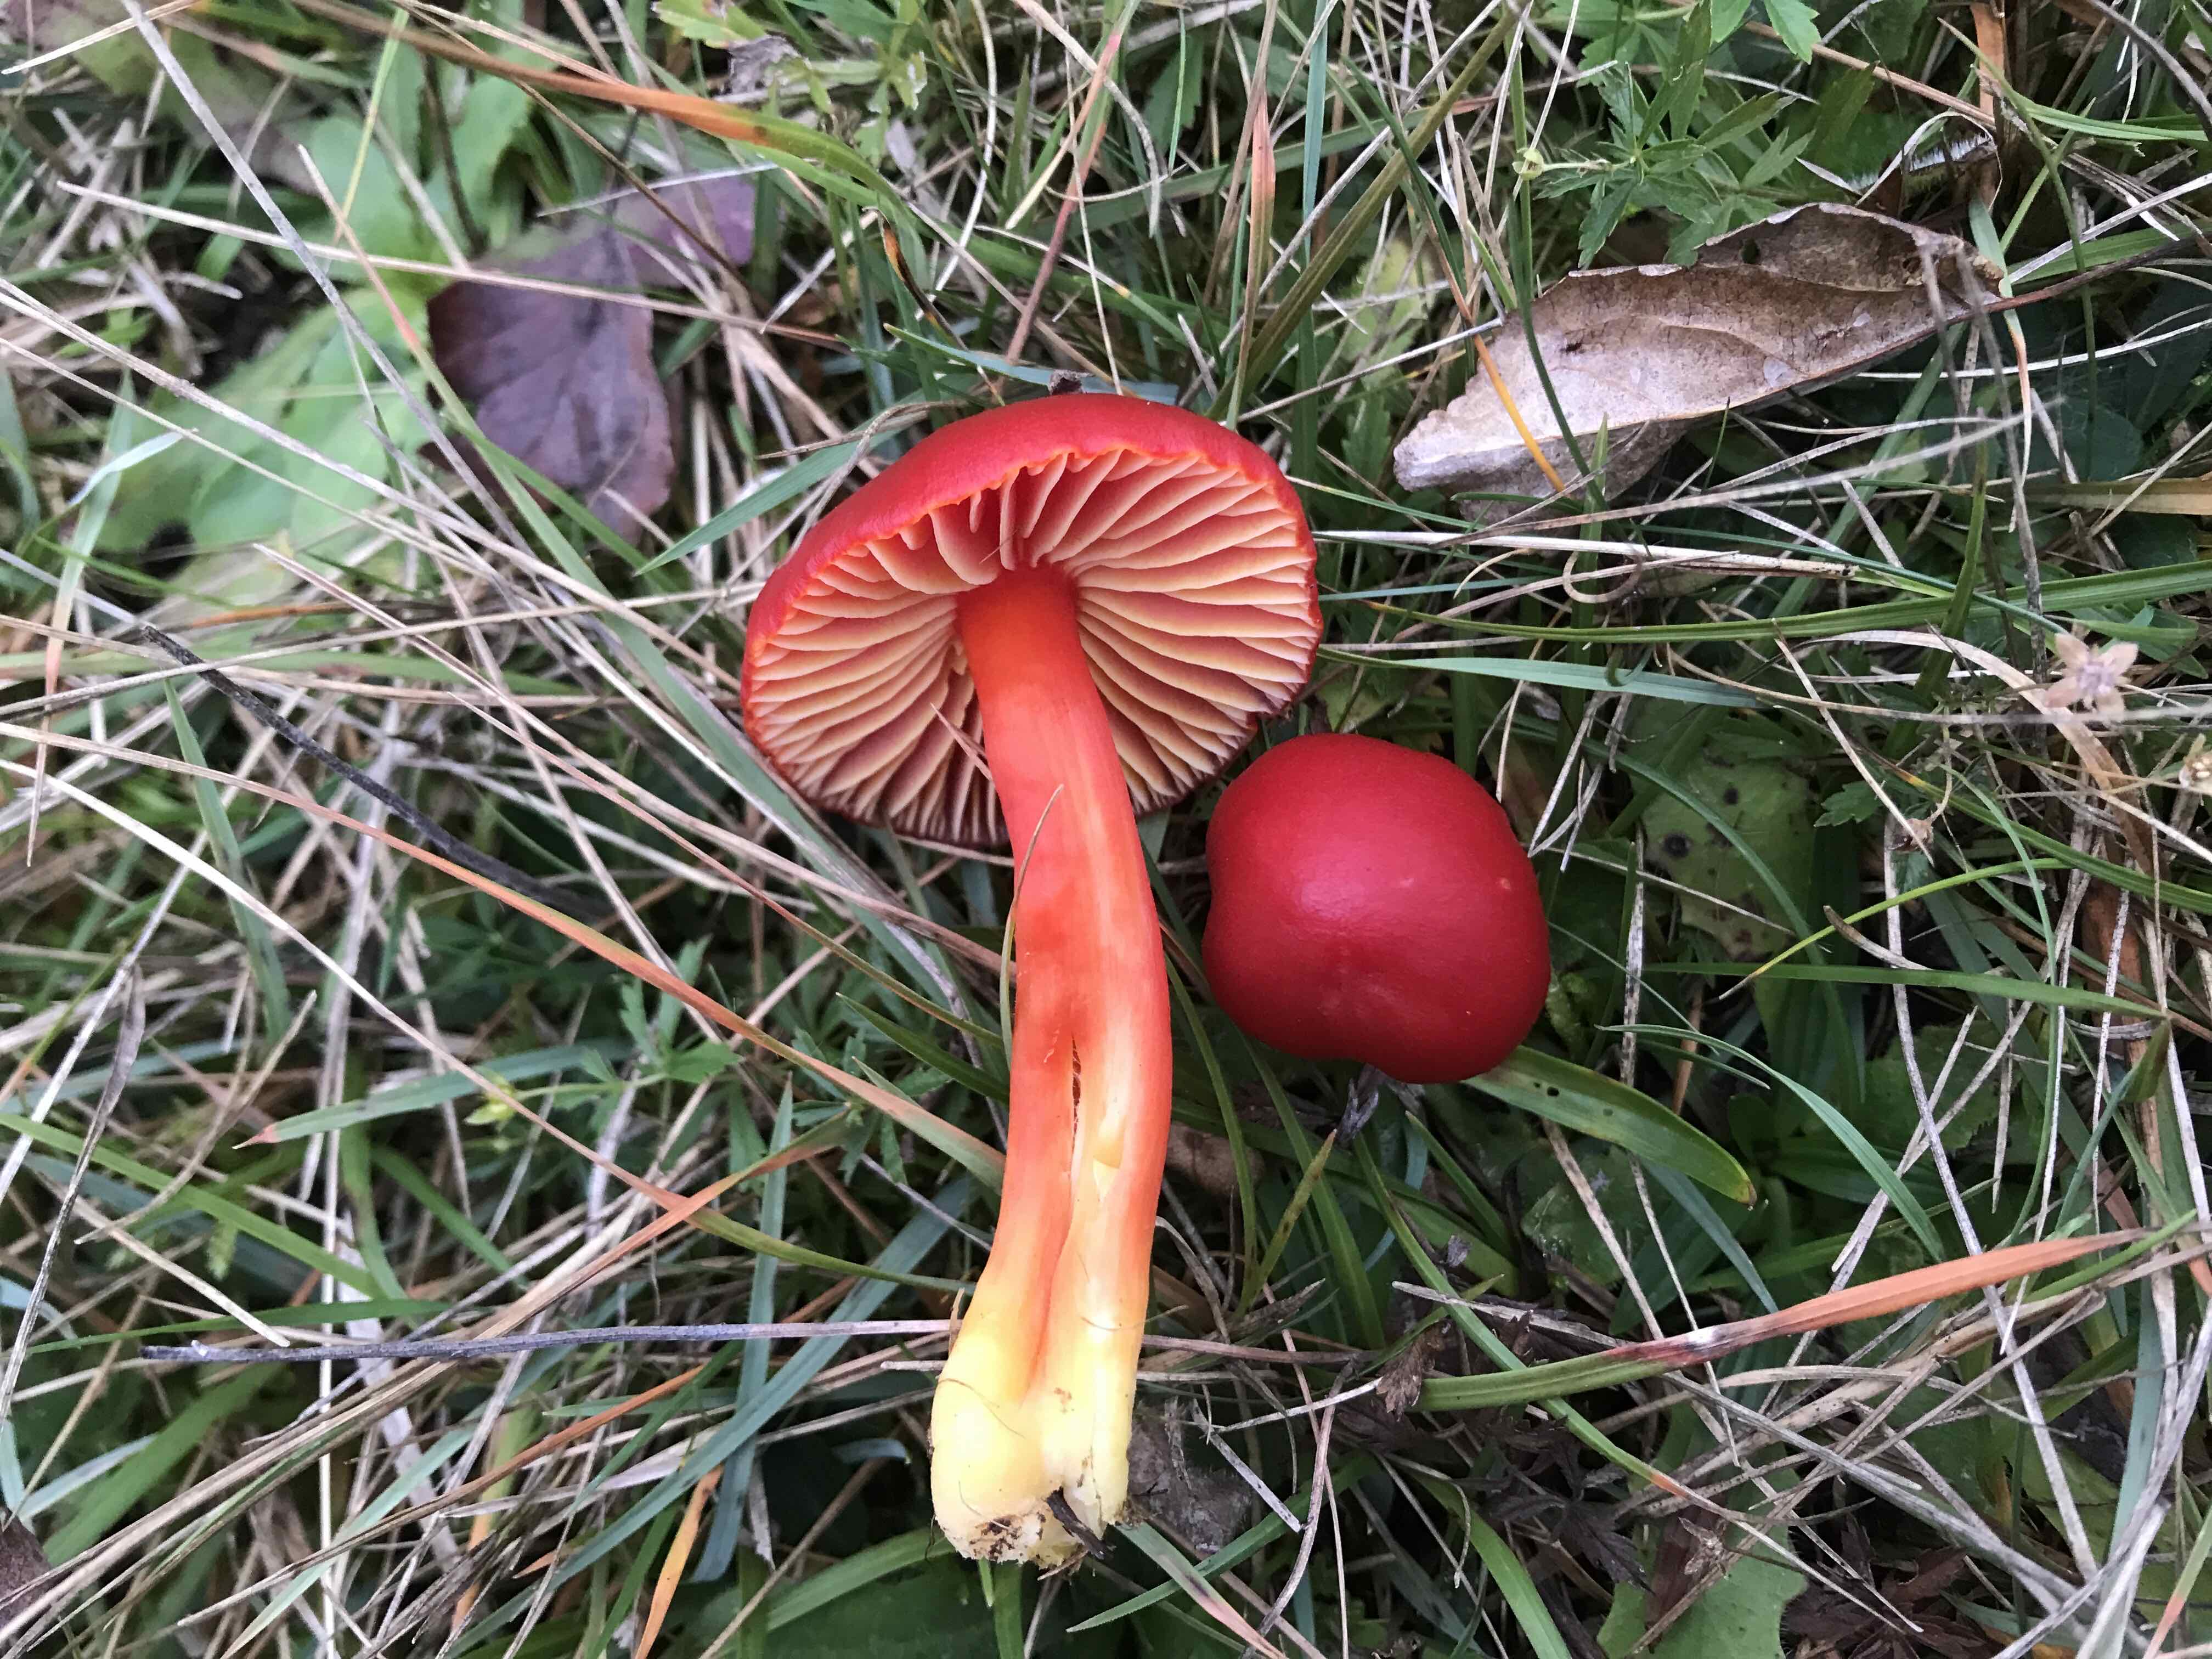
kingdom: Fungi
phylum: Basidiomycota
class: Agaricomycetes
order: Agaricales
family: Hygrophoraceae
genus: Hygrocybe
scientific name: Hygrocybe splendidissima
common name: knaldrød vokshat
